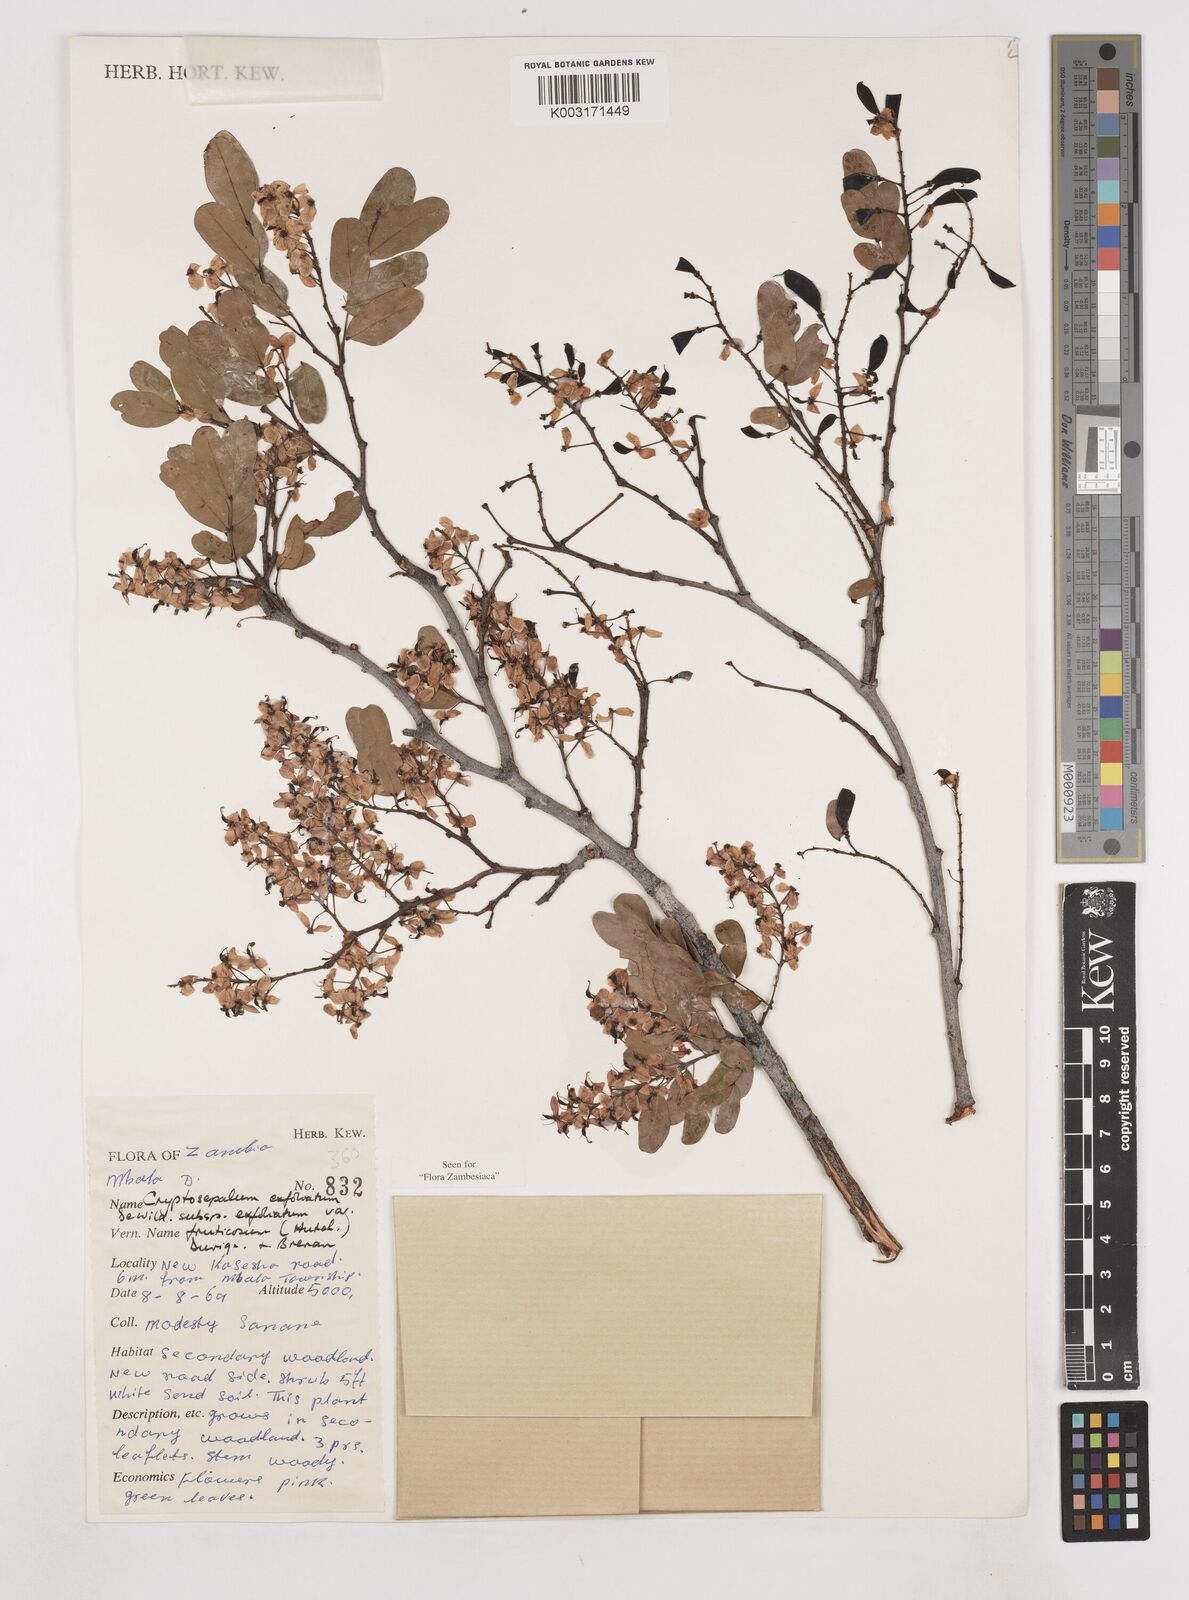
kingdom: Plantae
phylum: Tracheophyta
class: Magnoliopsida
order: Fabales
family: Fabaceae
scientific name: Fabaceae
